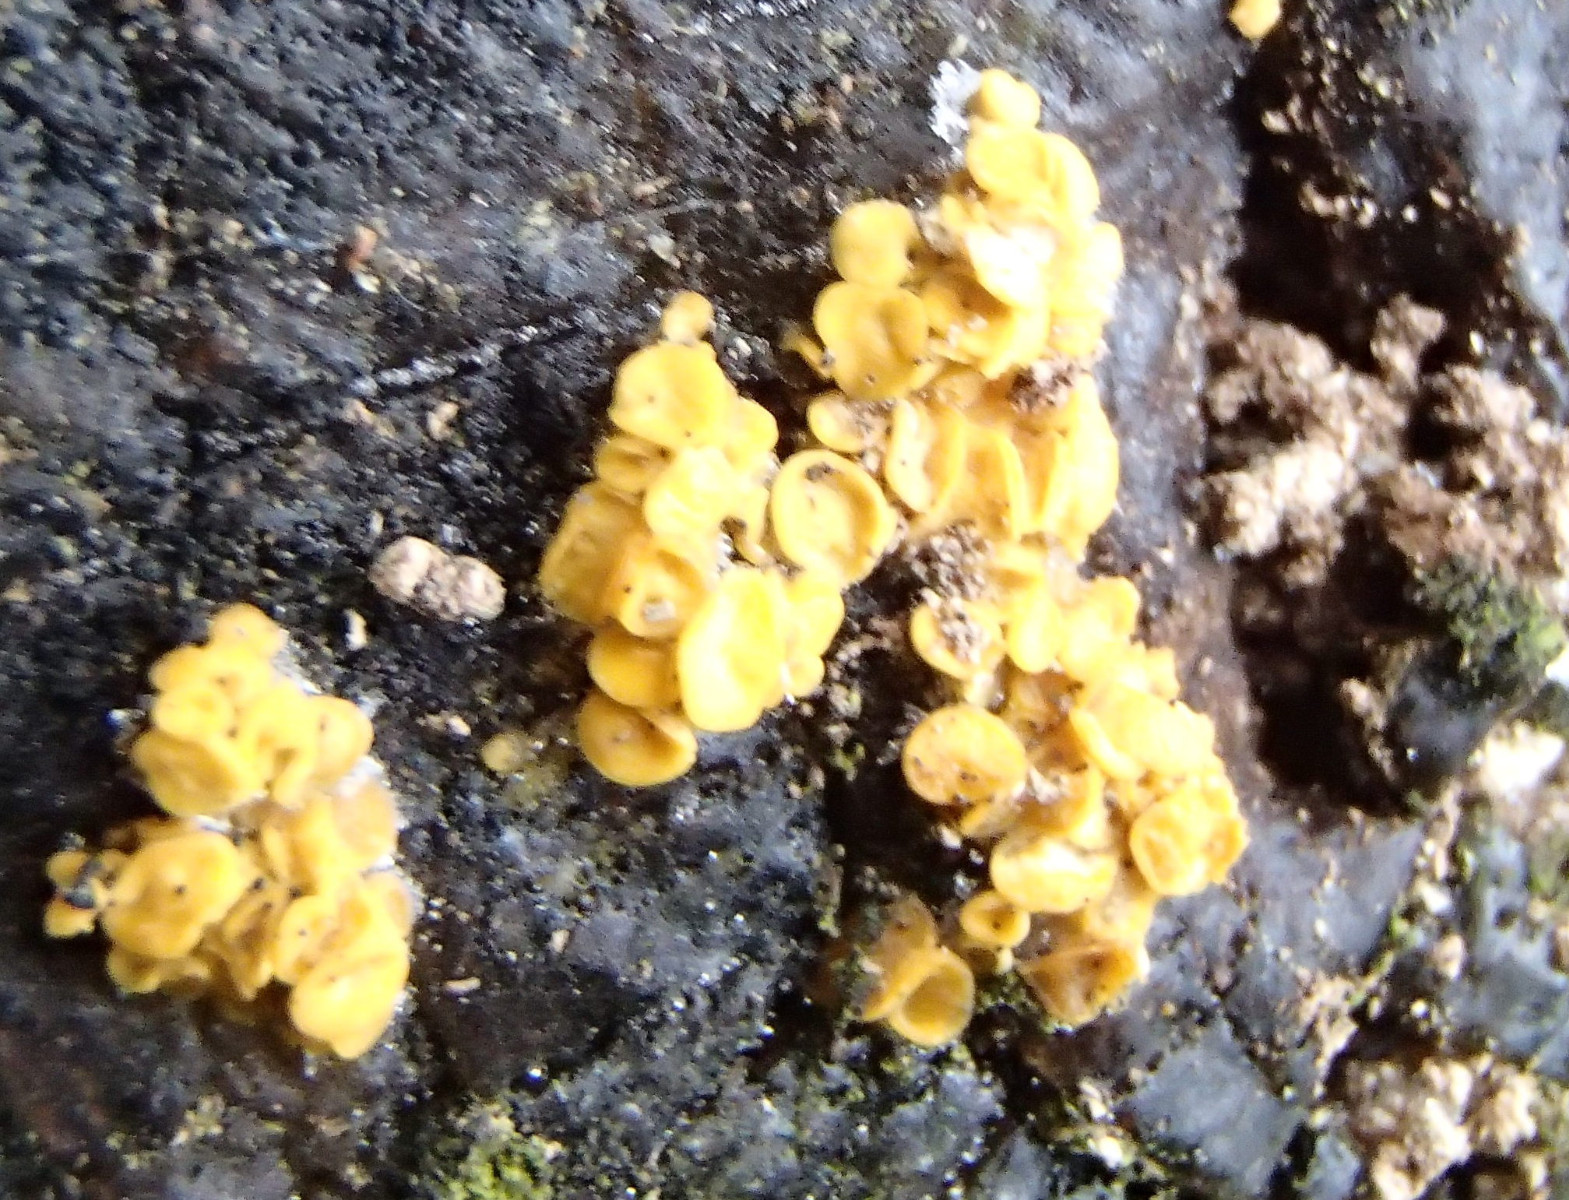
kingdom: Fungi
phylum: Ascomycota
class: Leotiomycetes
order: Helotiales
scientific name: Helotiales
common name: stilkskiveordenen
